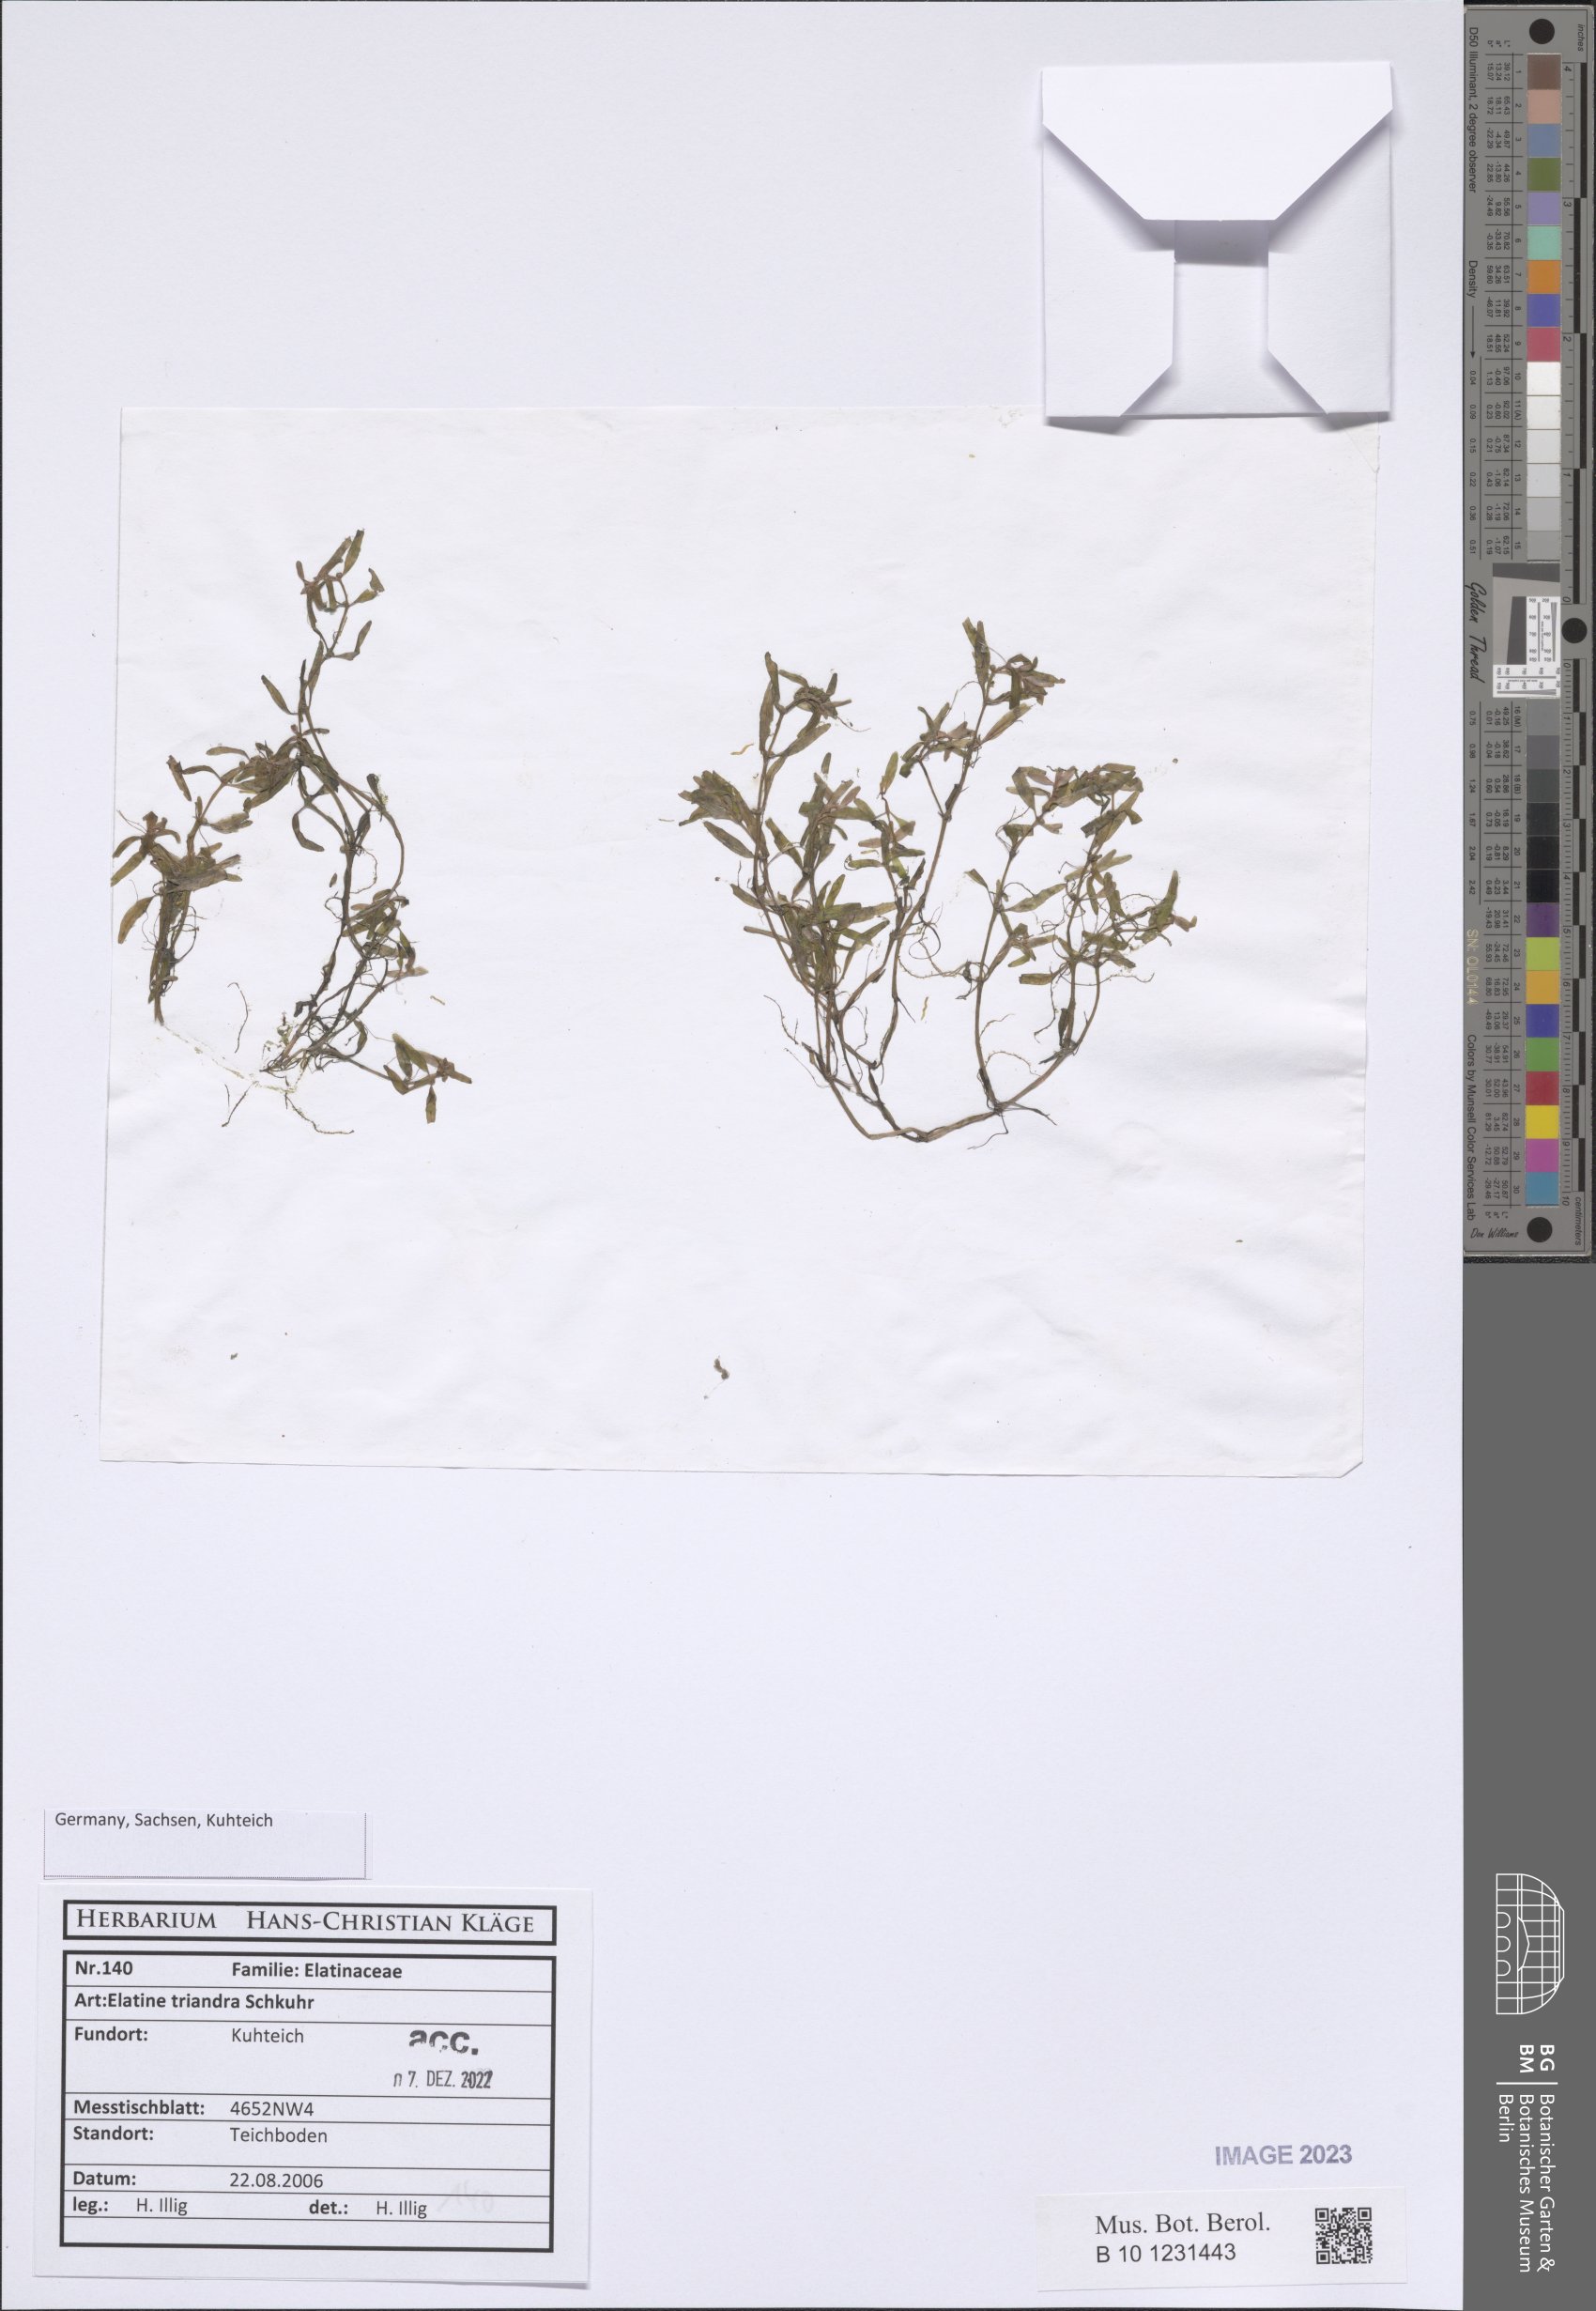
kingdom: Plantae
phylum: Tracheophyta
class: Magnoliopsida
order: Malpighiales
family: Elatinaceae
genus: Elatine
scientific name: Elatine triandra
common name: Three-stamened waterwort
